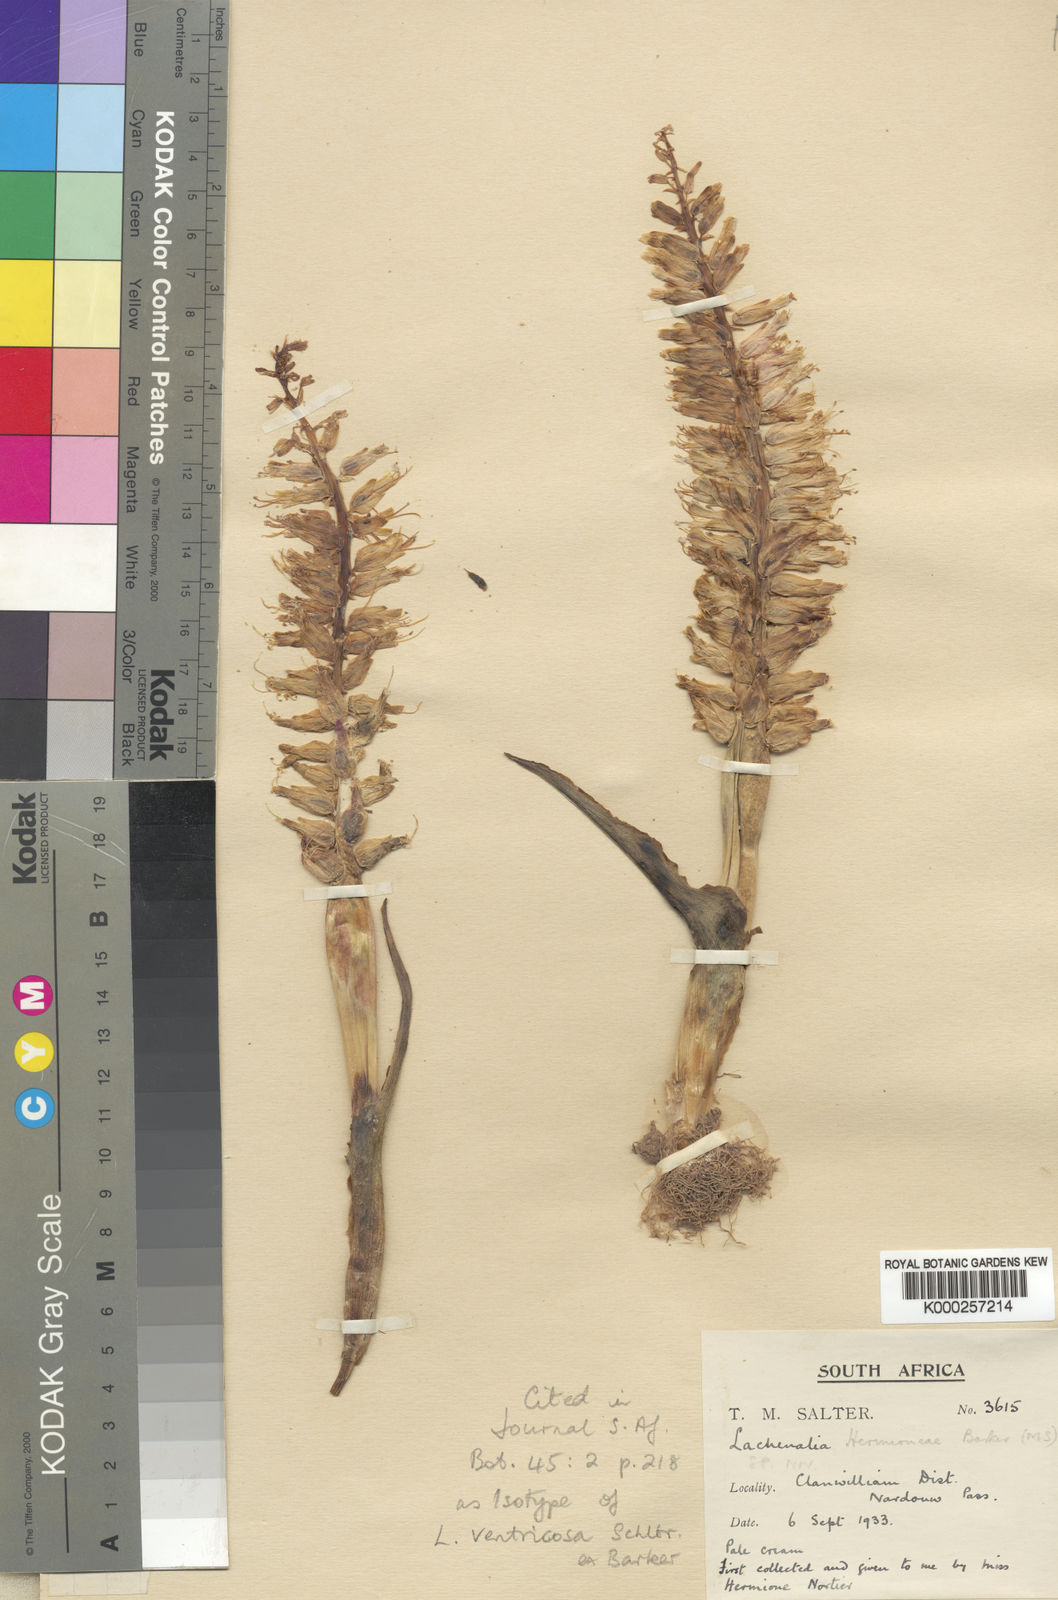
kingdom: Plantae
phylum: Tracheophyta
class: Liliopsida
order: Asparagales
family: Asparagaceae
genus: Lachenalia
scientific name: Lachenalia ventricosa
